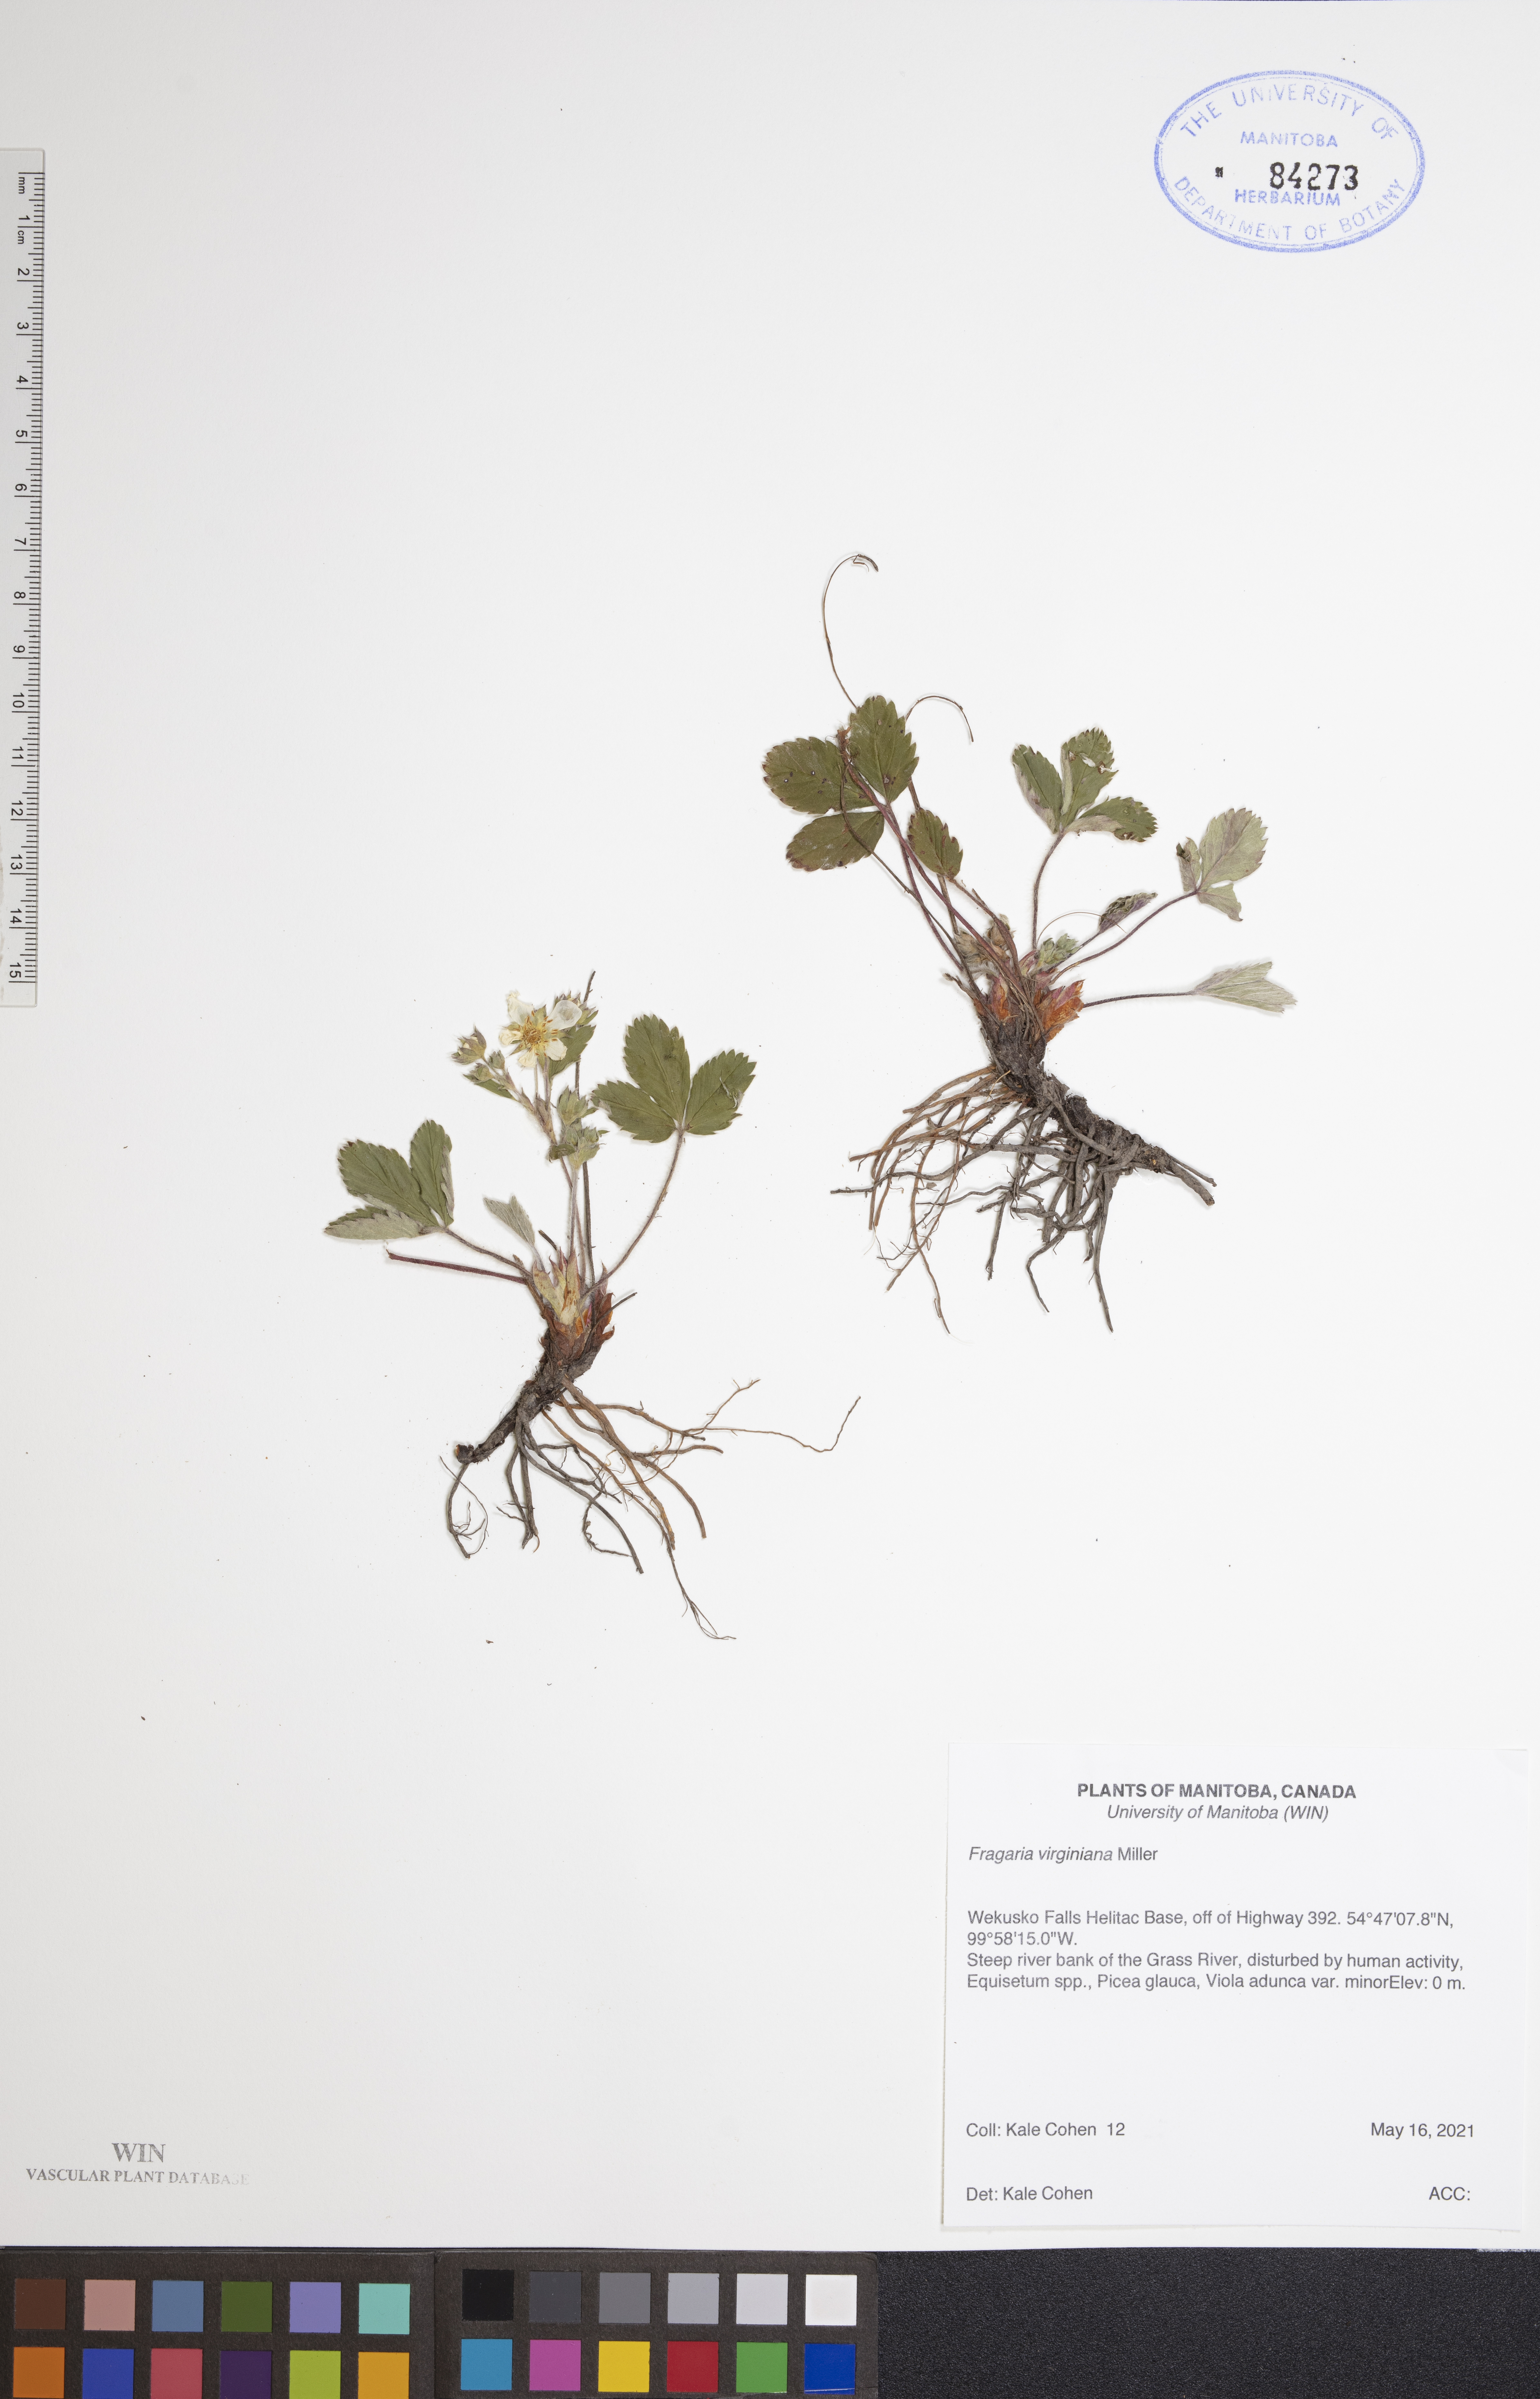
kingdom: Plantae
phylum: Tracheophyta
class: Magnoliopsida
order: Rosales
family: Rosaceae
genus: Fragaria
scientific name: Fragaria virginiana
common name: Thickleaved wild strawberry
